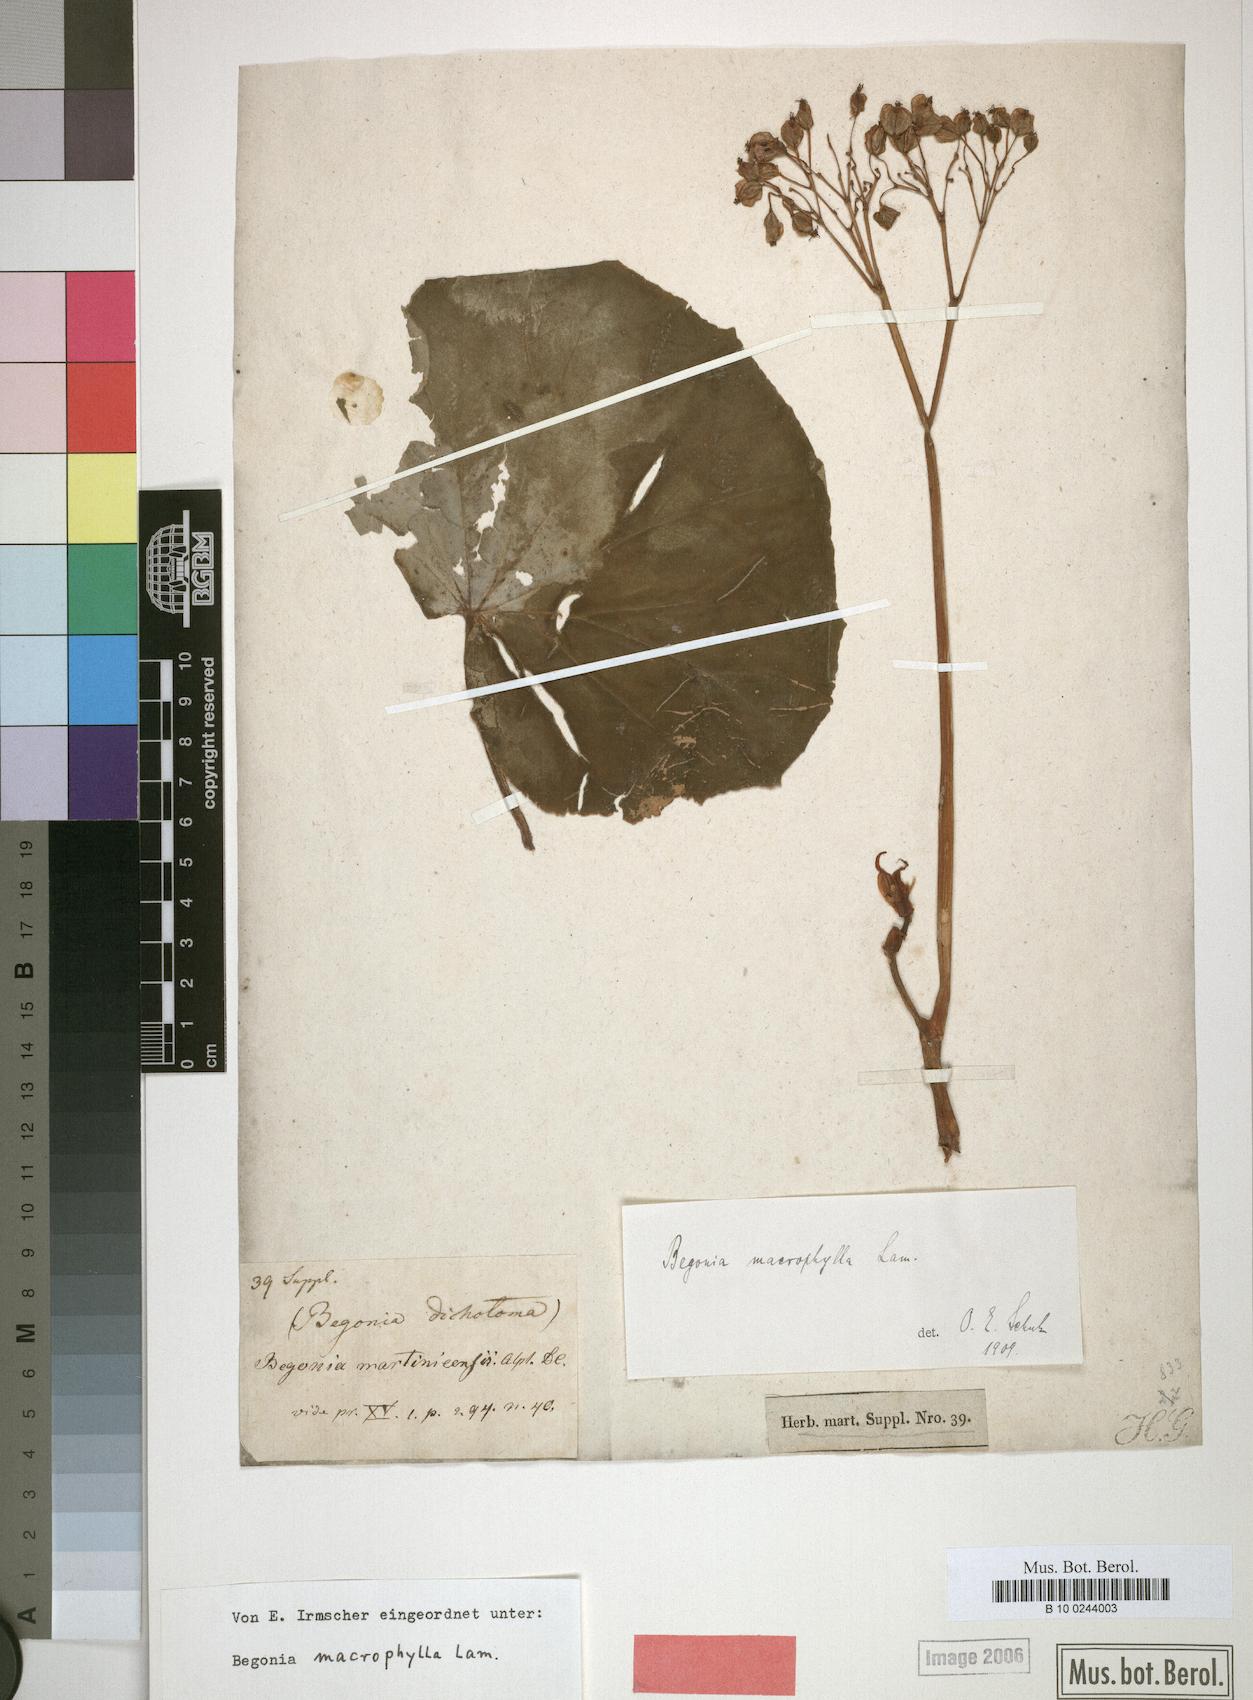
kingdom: Plantae
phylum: Tracheophyta
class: Magnoliopsida
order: Cucurbitales
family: Begoniaceae
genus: Begonia
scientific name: Begonia obliqua
